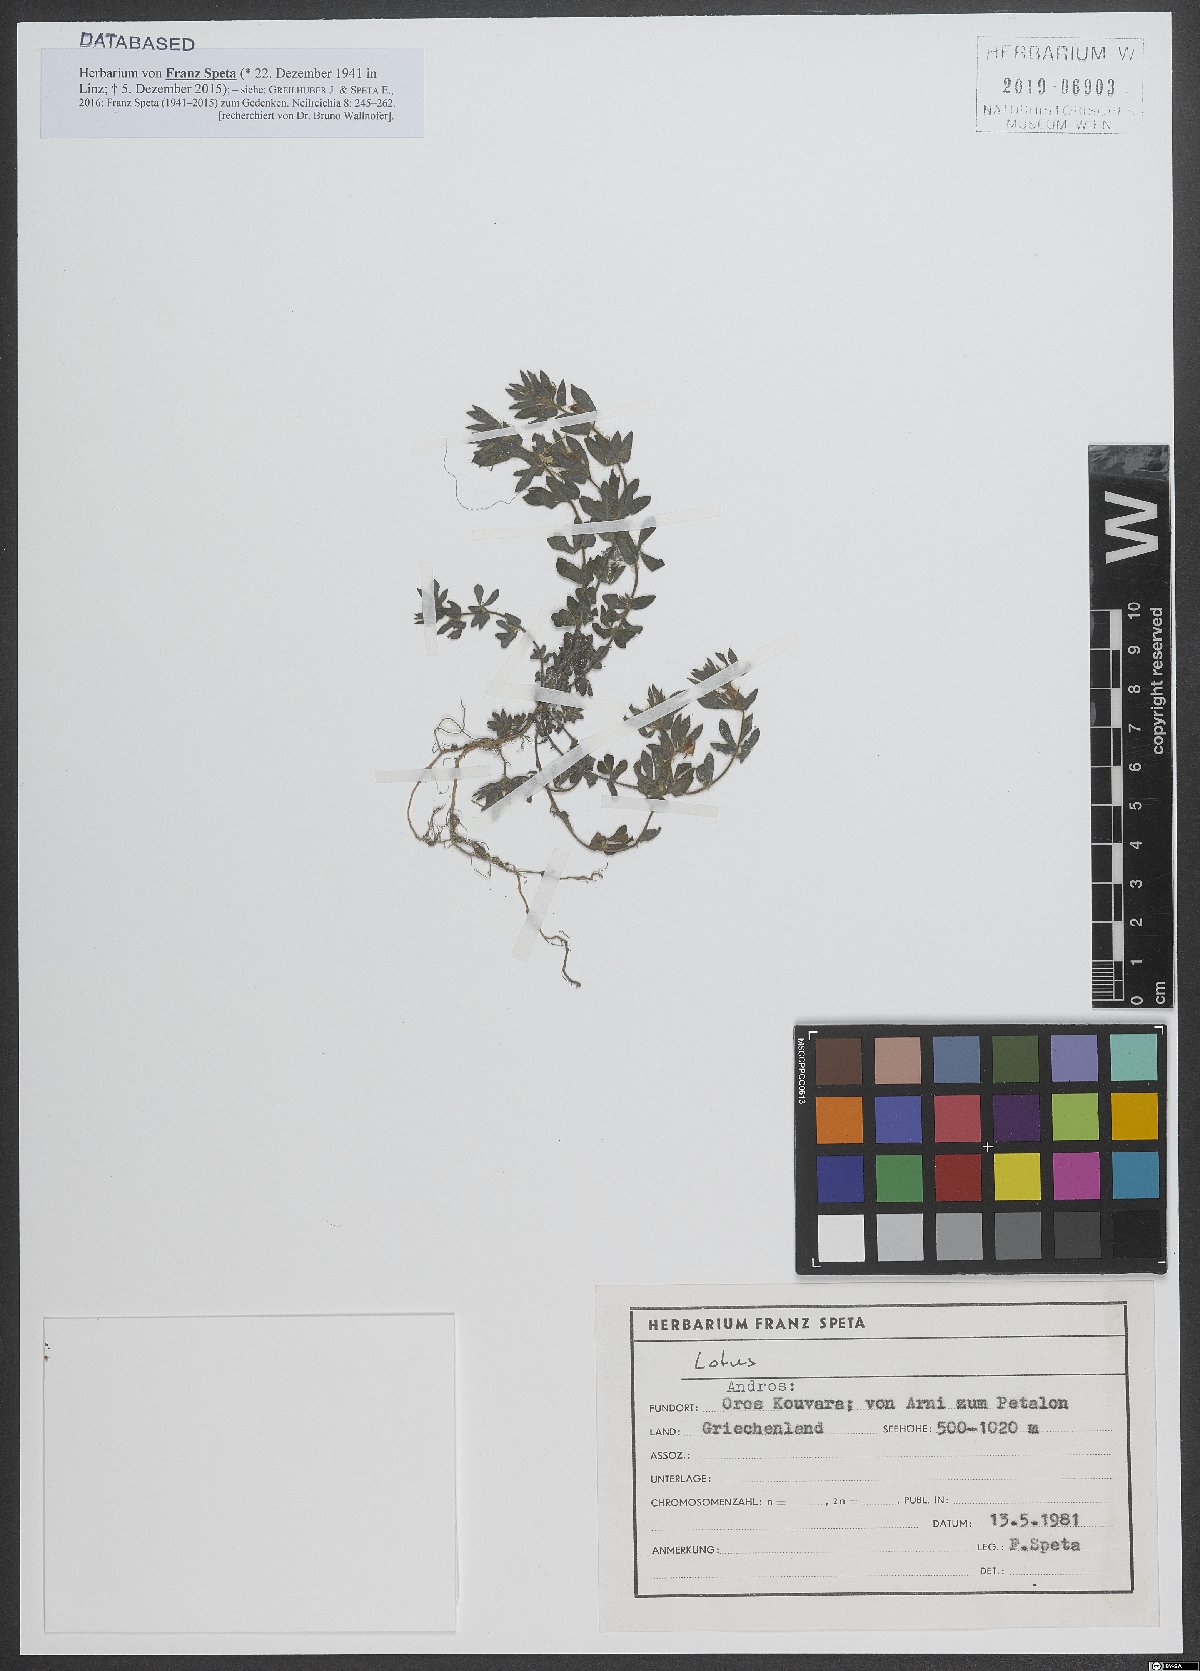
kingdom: Plantae
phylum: Tracheophyta
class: Magnoliopsida
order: Fabales
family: Fabaceae
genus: Lotus
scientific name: Lotus
